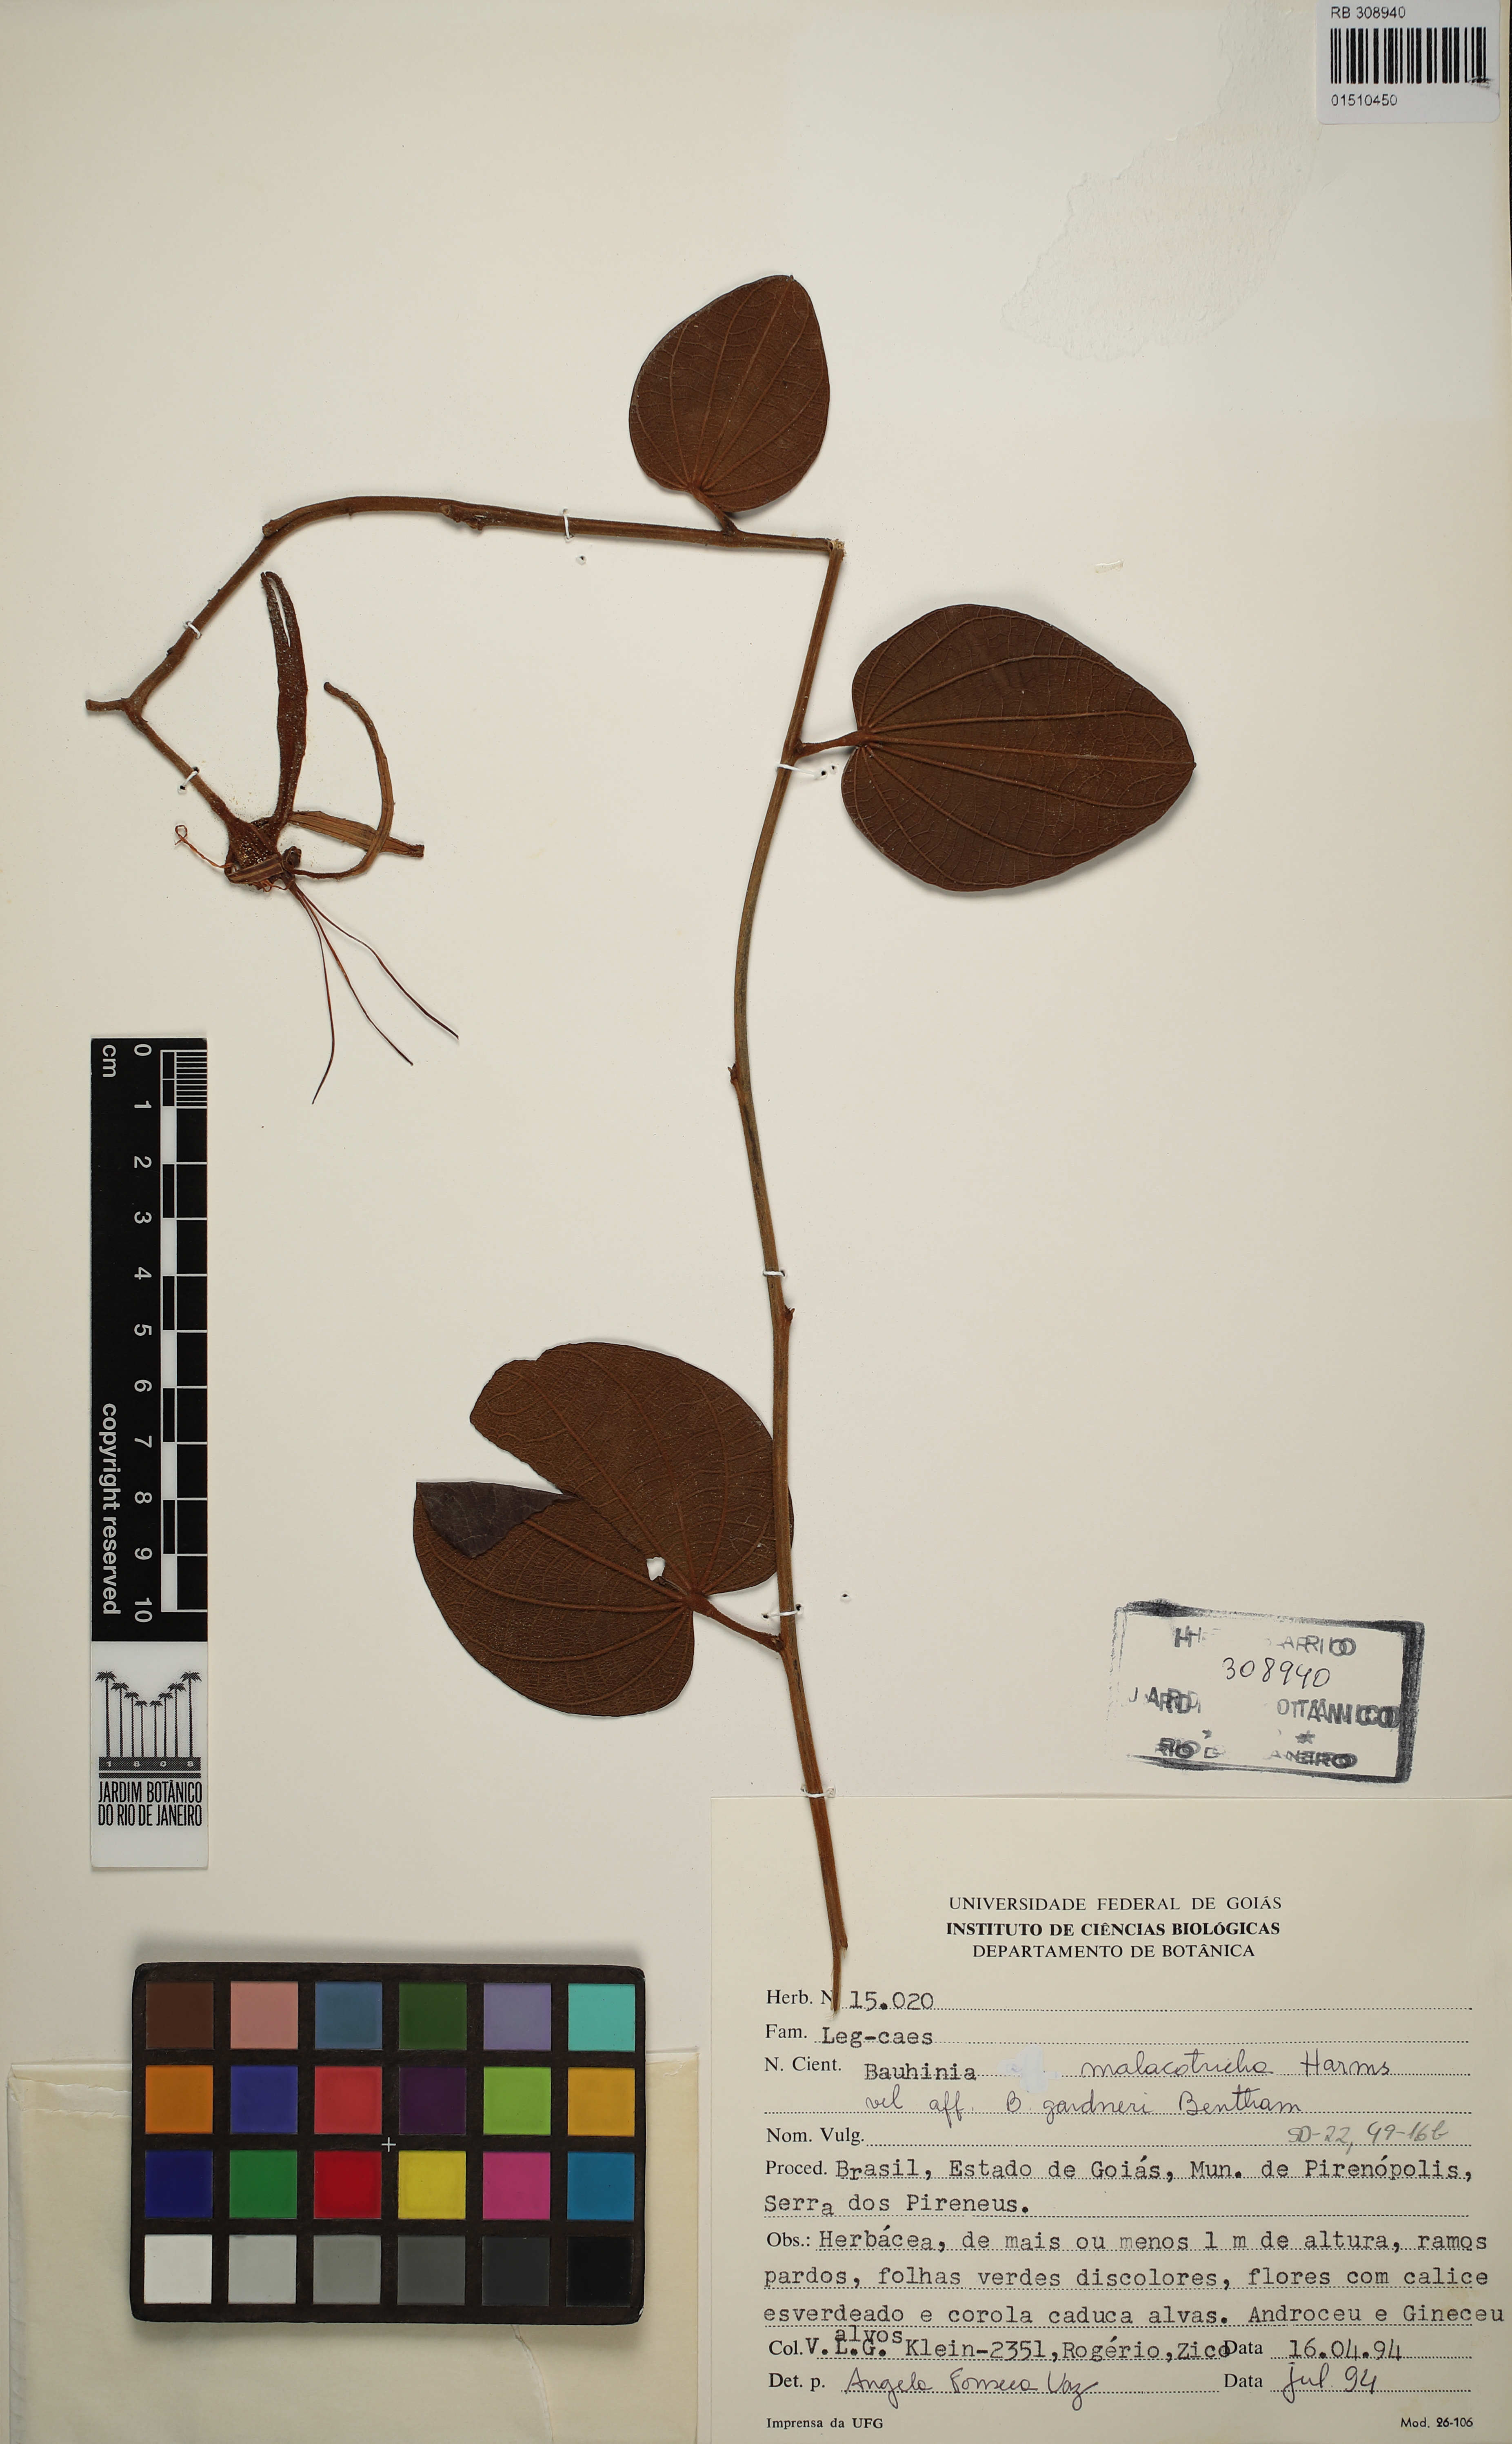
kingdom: Plantae
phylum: Tracheophyta
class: Magnoliopsida
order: Fabales
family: Fabaceae
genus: Bauhinia
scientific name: Bauhinia malacotricha
